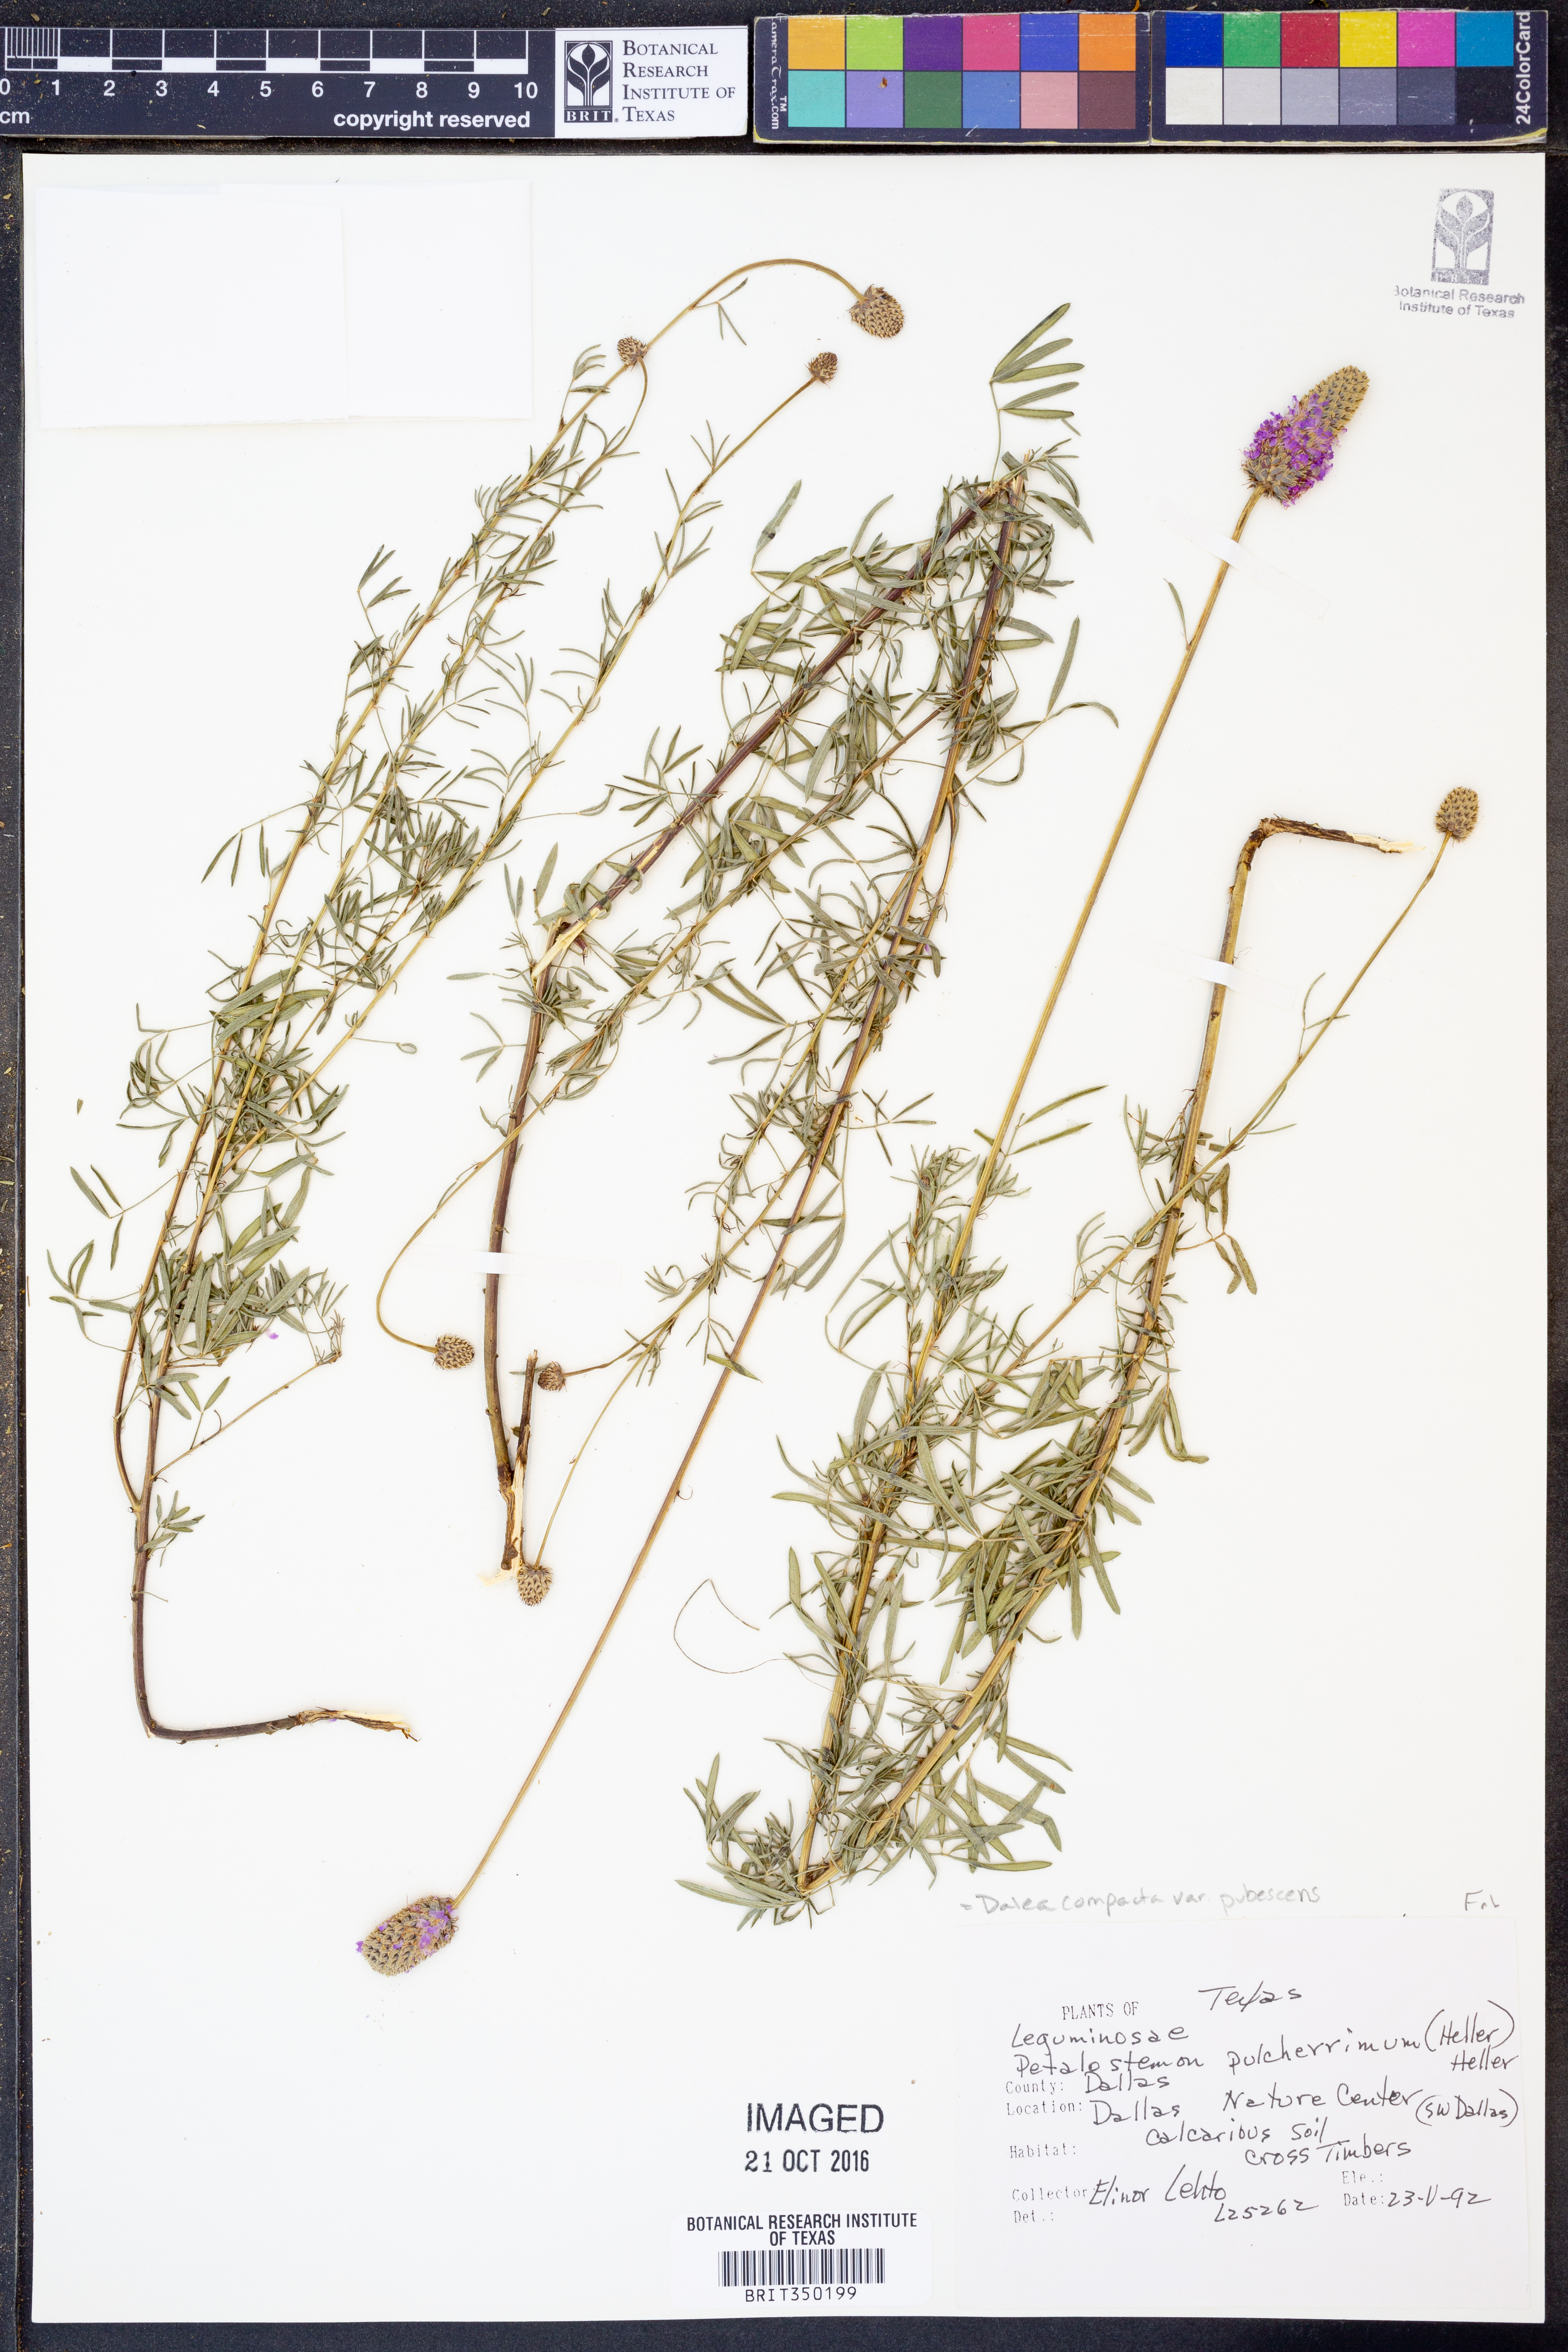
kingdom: Plantae
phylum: Tracheophyta
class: Magnoliopsida
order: Fabales
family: Fabaceae
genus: Dalea
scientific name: Dalea compacta
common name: Compact prairie-clover
